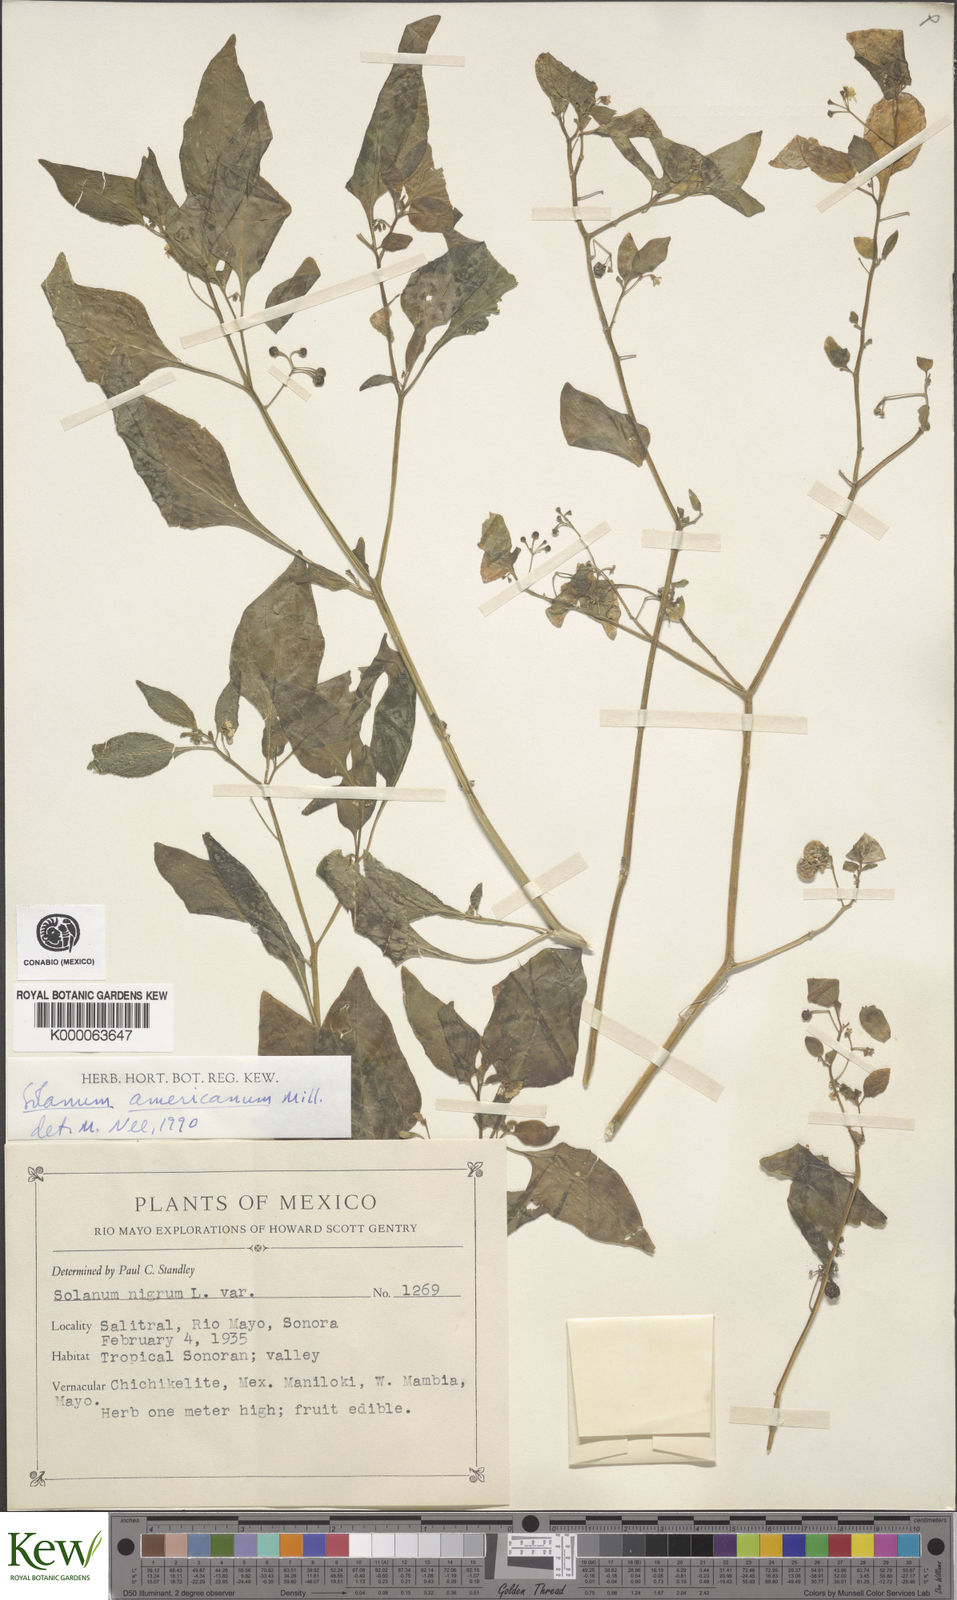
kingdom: Plantae
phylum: Tracheophyta
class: Magnoliopsida
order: Solanales
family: Solanaceae
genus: Solanum
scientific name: Solanum americanum
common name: American black nightshade
